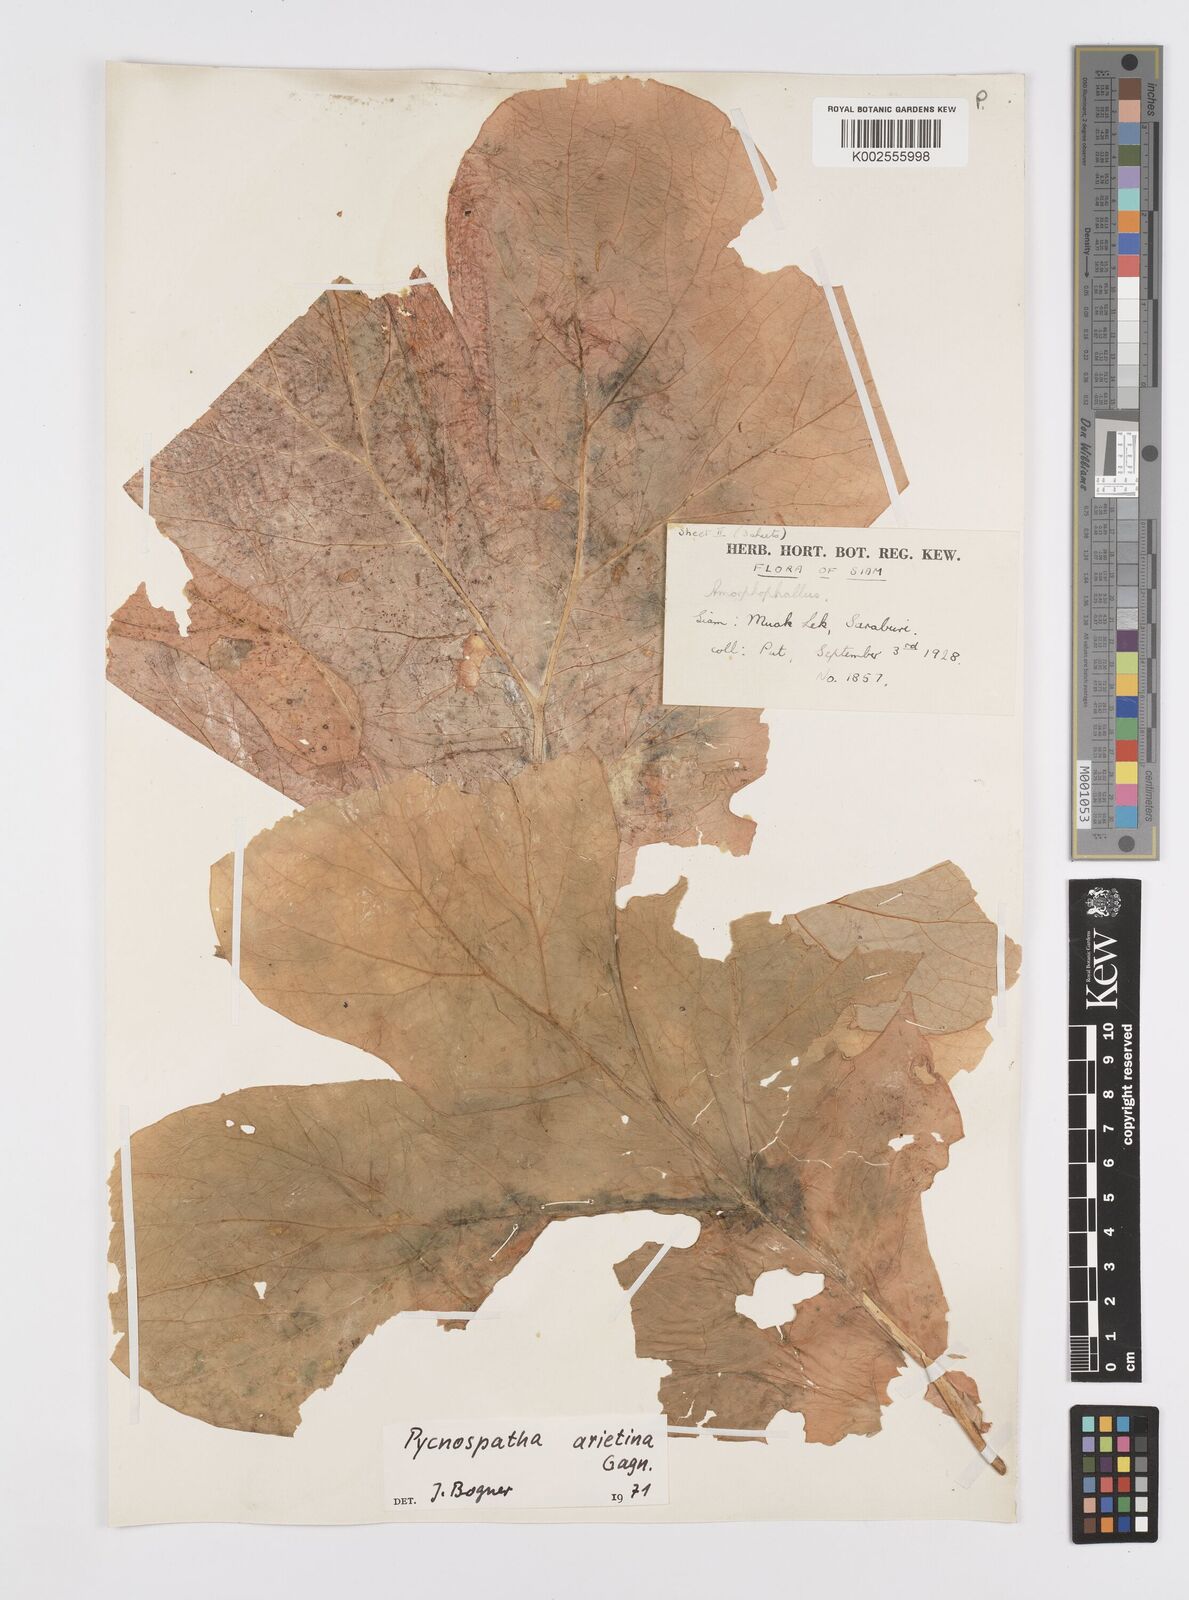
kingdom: Plantae
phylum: Tracheophyta
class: Liliopsida
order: Alismatales
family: Araceae
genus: Pycnospatha
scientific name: Pycnospatha arietina
